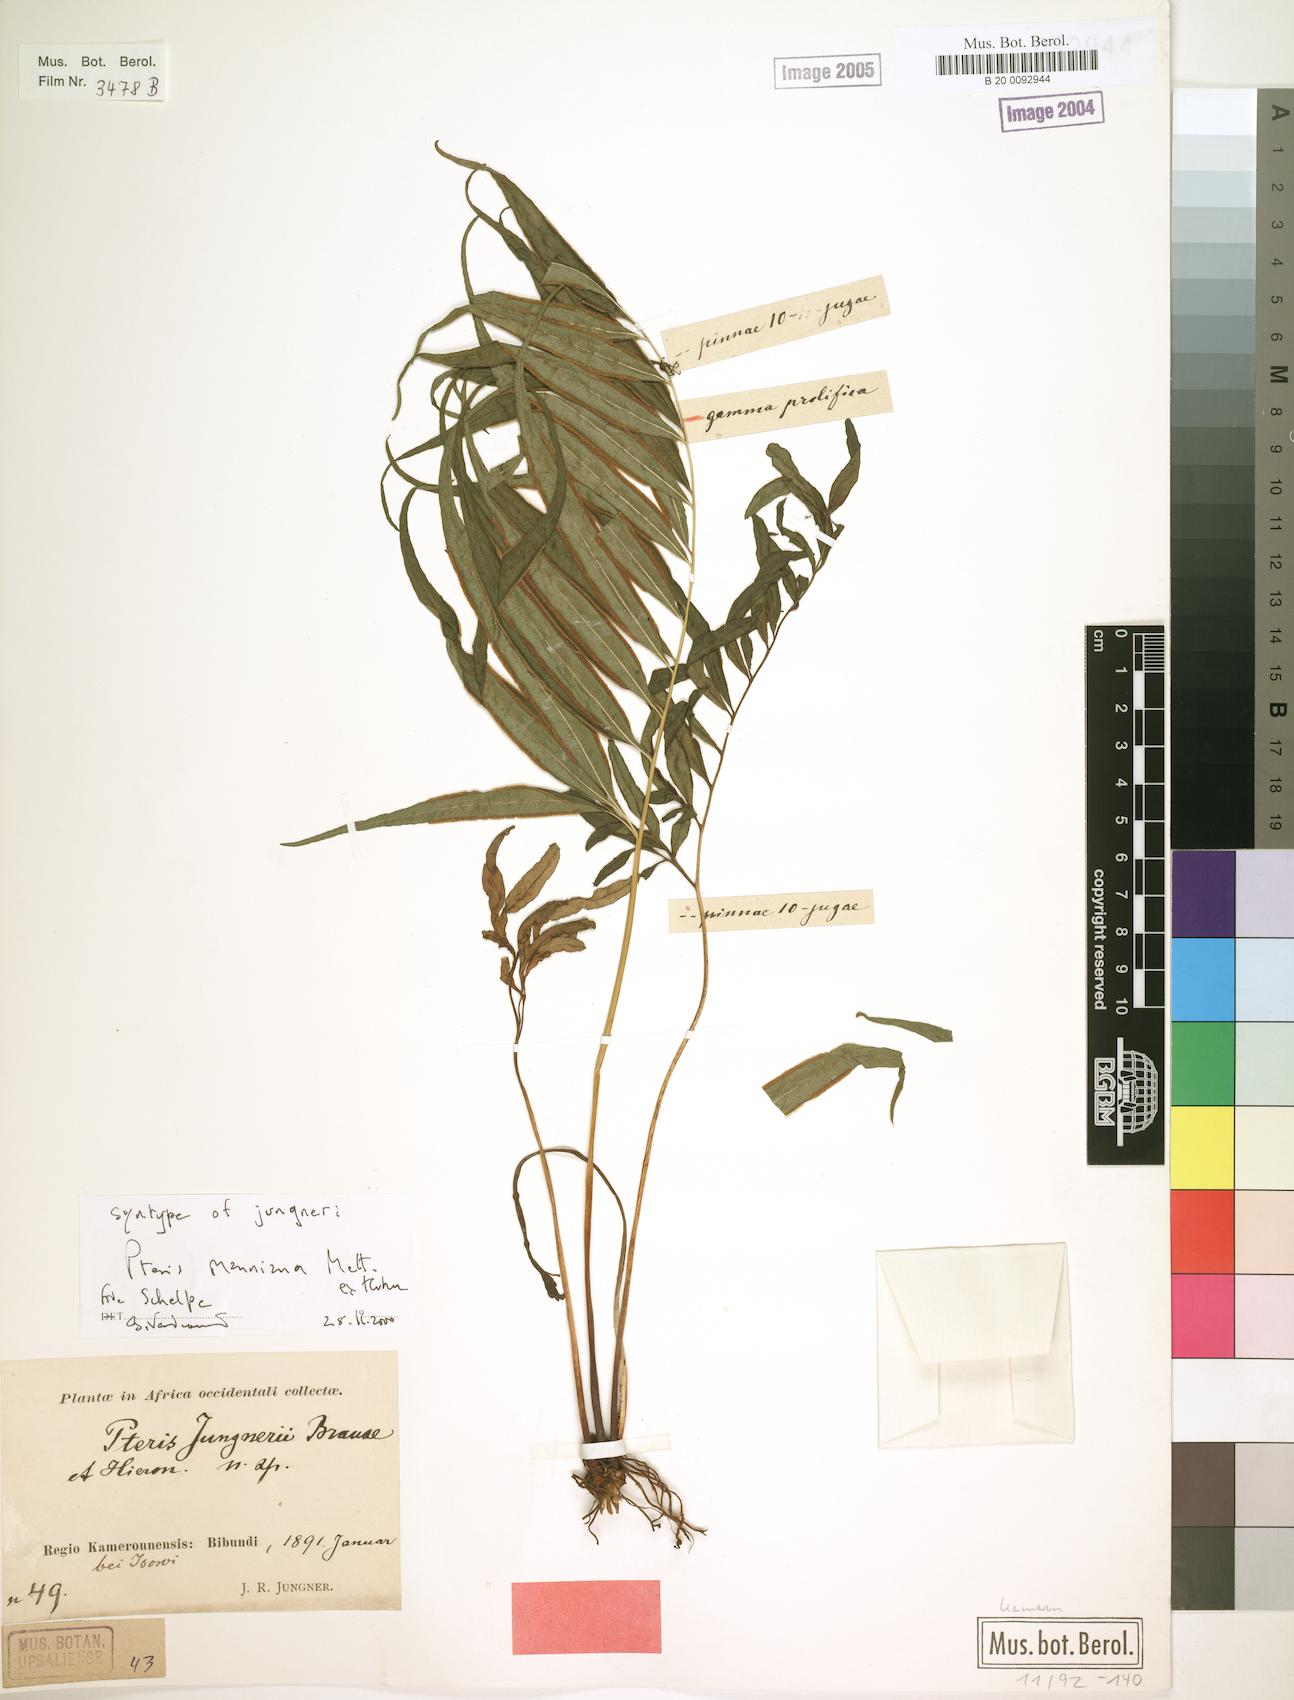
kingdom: Plantae
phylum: Tracheophyta
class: Polypodiopsida
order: Polypodiales
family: Pteridaceae
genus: Pteris
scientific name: Pteris camerooniana
